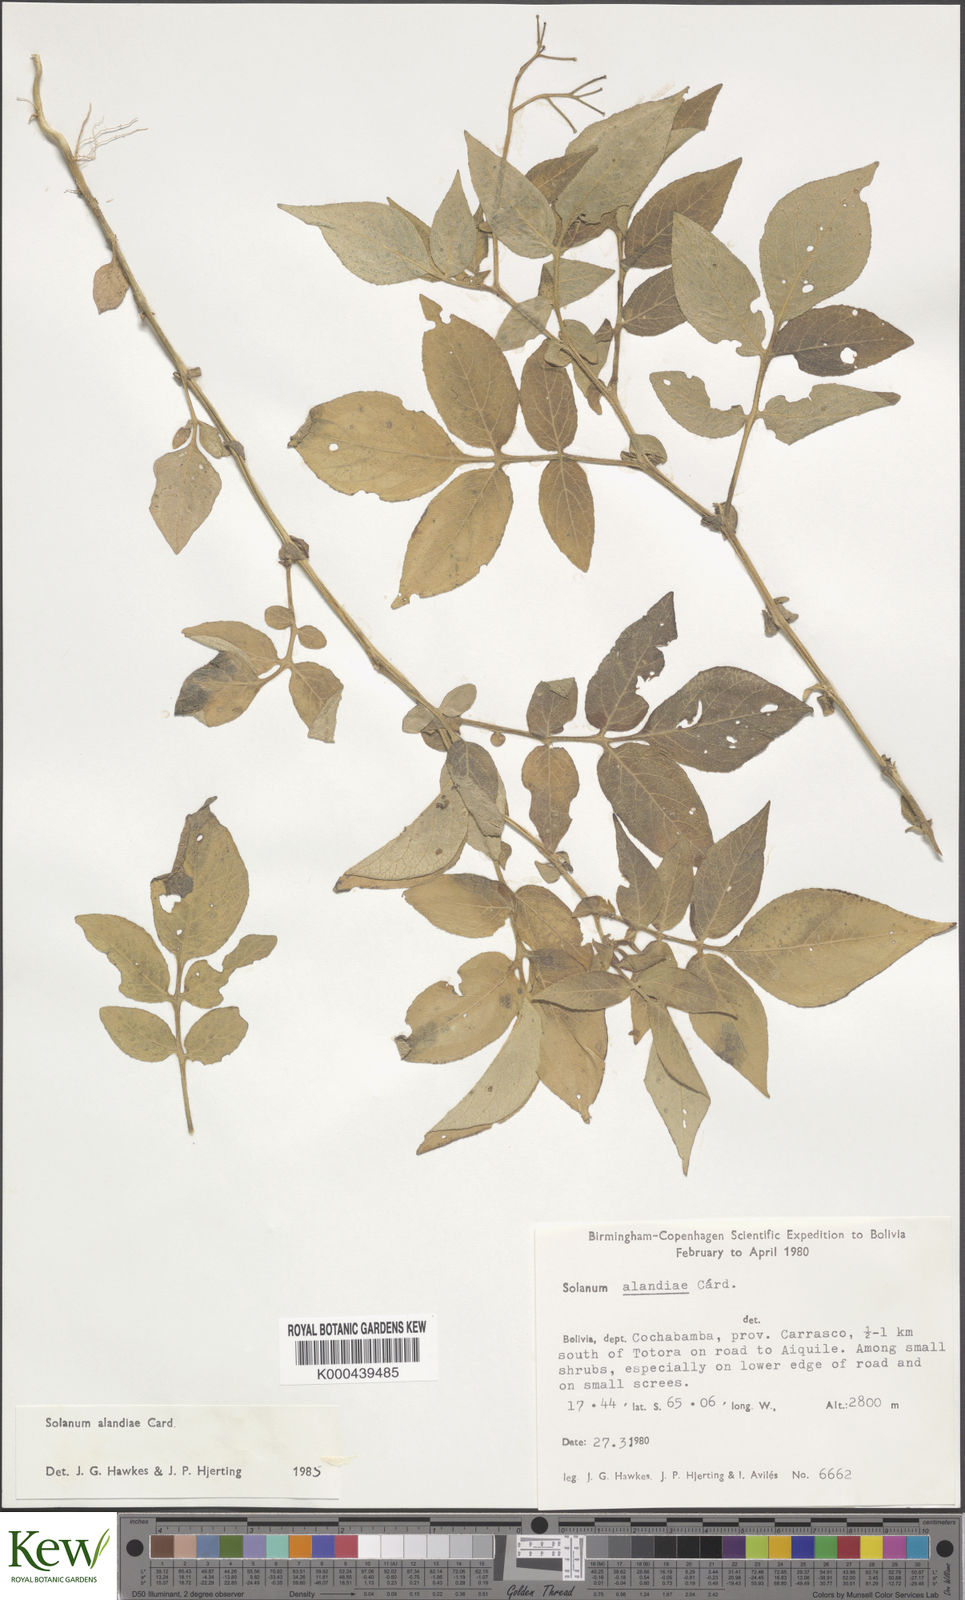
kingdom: Plantae
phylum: Tracheophyta
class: Magnoliopsida
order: Solanales
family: Solanaceae
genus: Solanum
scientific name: Solanum brevicaule
